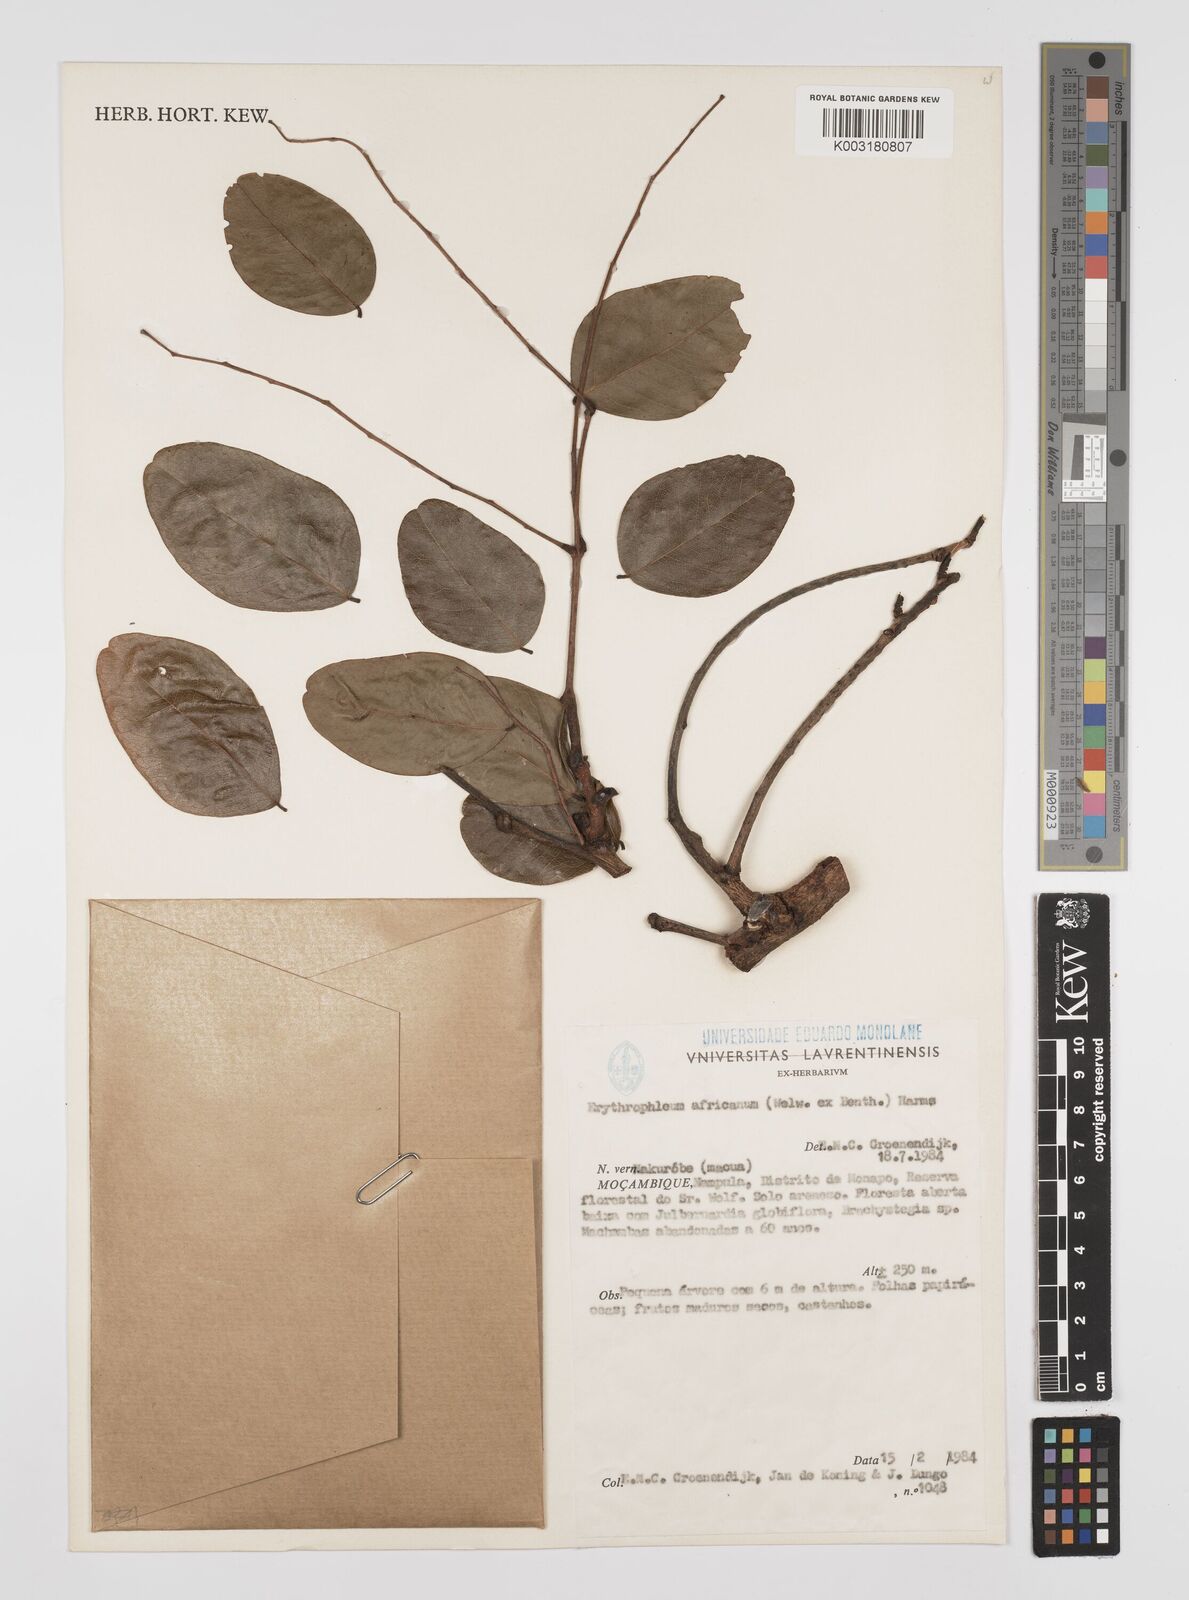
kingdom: Plantae
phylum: Tracheophyta
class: Magnoliopsida
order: Fabales
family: Fabaceae
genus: Peltophorum
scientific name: Peltophorum africanum
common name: African black wattle
